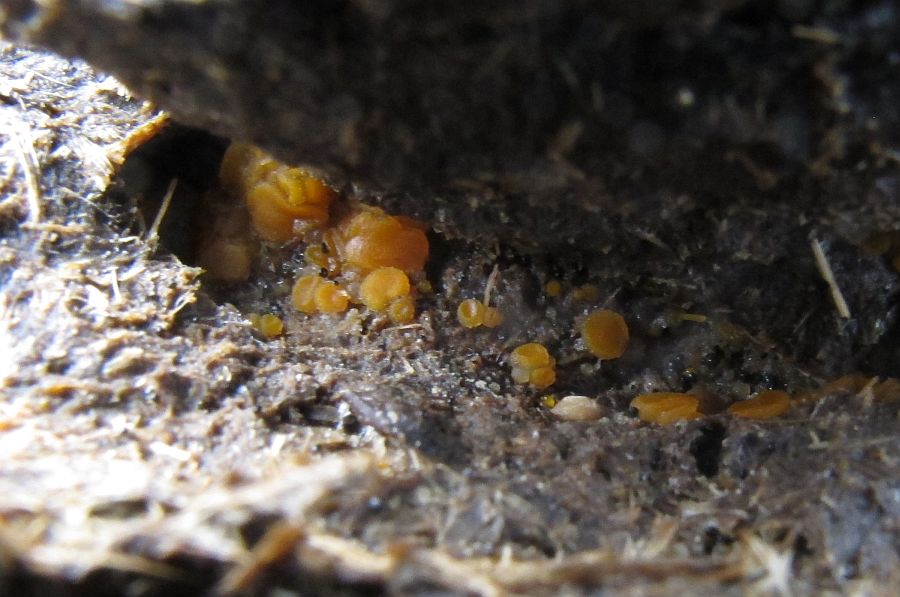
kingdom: Fungi
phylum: Ascomycota
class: Pezizomycetes
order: Pezizales
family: Pyronemataceae
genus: Cheilymenia
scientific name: Cheilymenia granulata
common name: møgbæger
